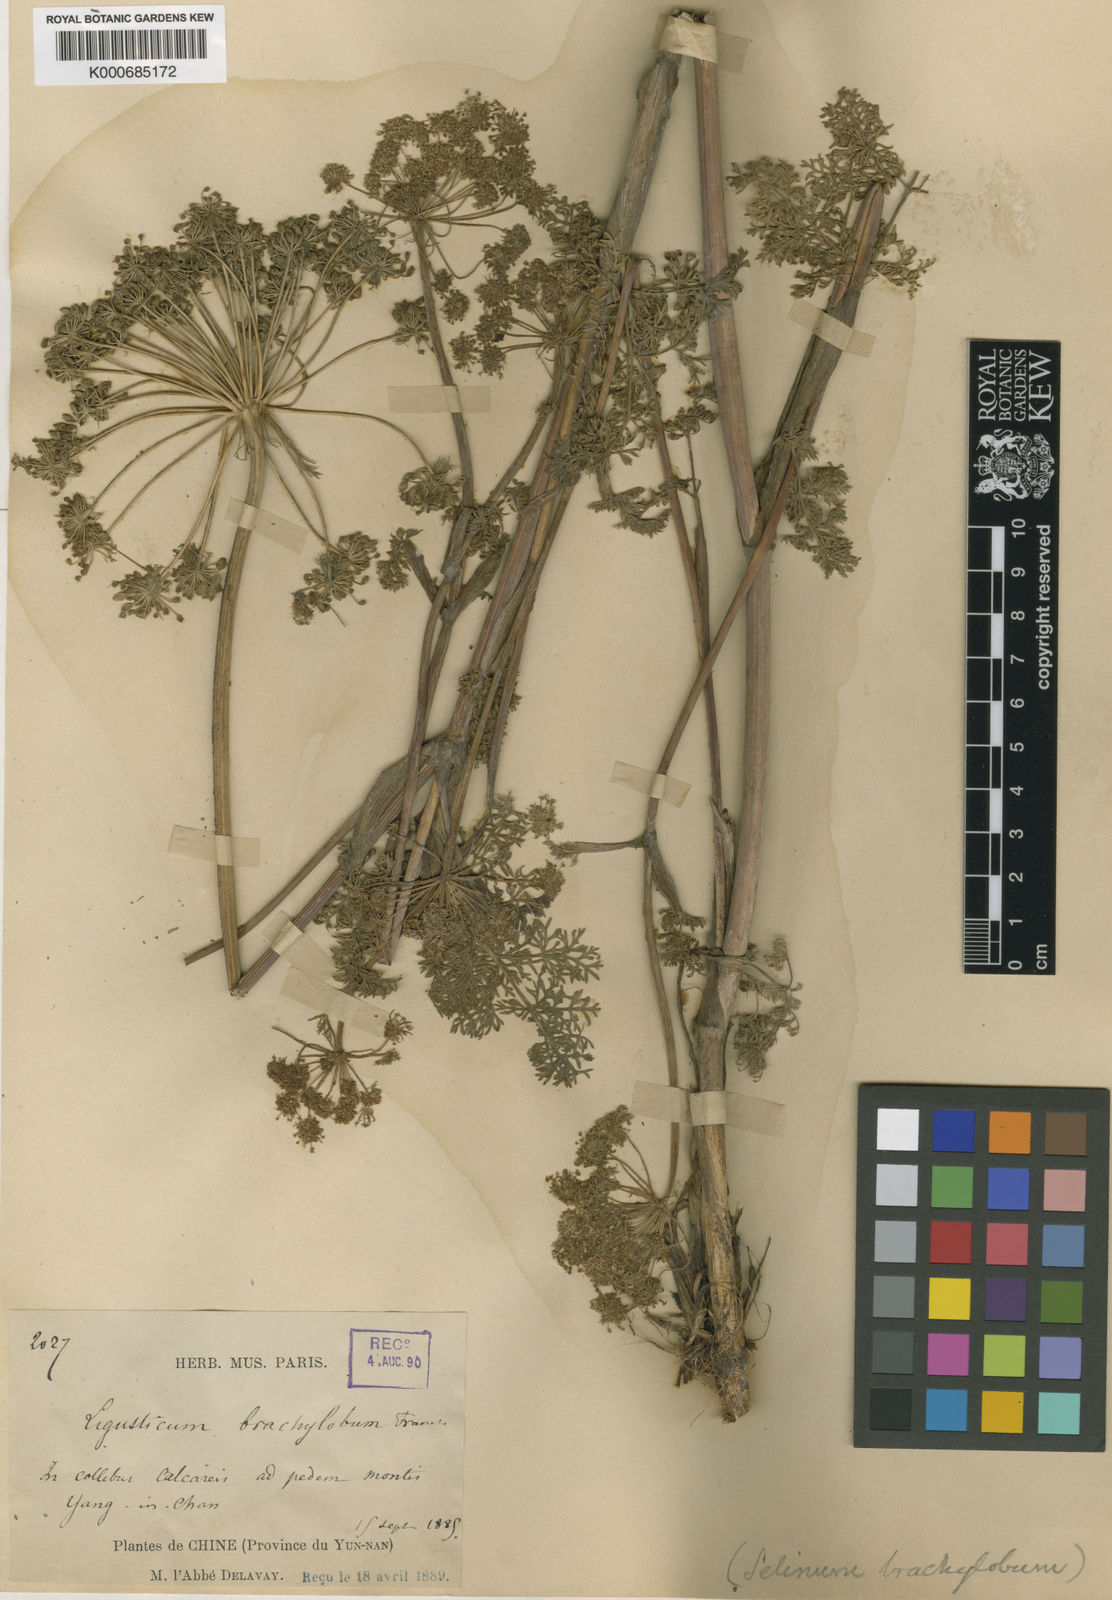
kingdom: Plantae
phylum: Tracheophyta
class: Magnoliopsida
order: Apiales
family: Apiaceae
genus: Selinum
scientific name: Selinum
